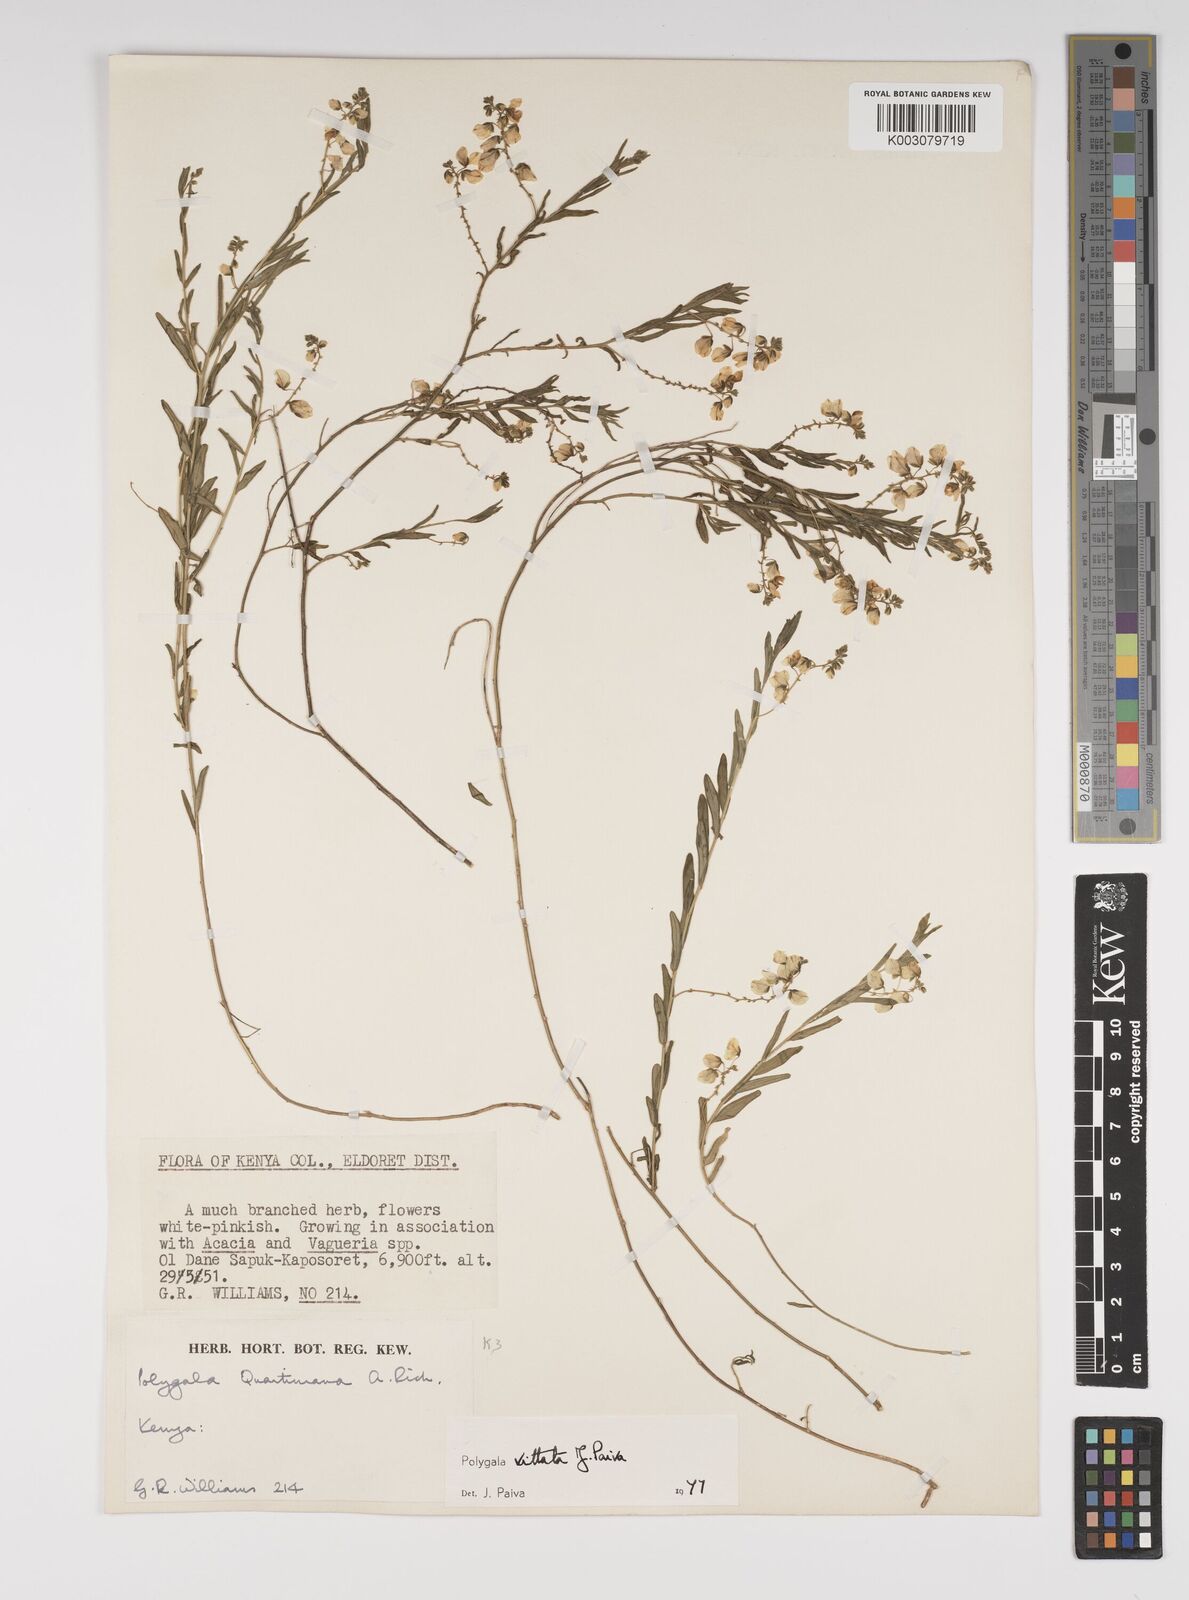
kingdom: Plantae
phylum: Tracheophyta
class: Magnoliopsida
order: Fabales
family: Polygalaceae
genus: Polygala
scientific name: Polygala vittata
